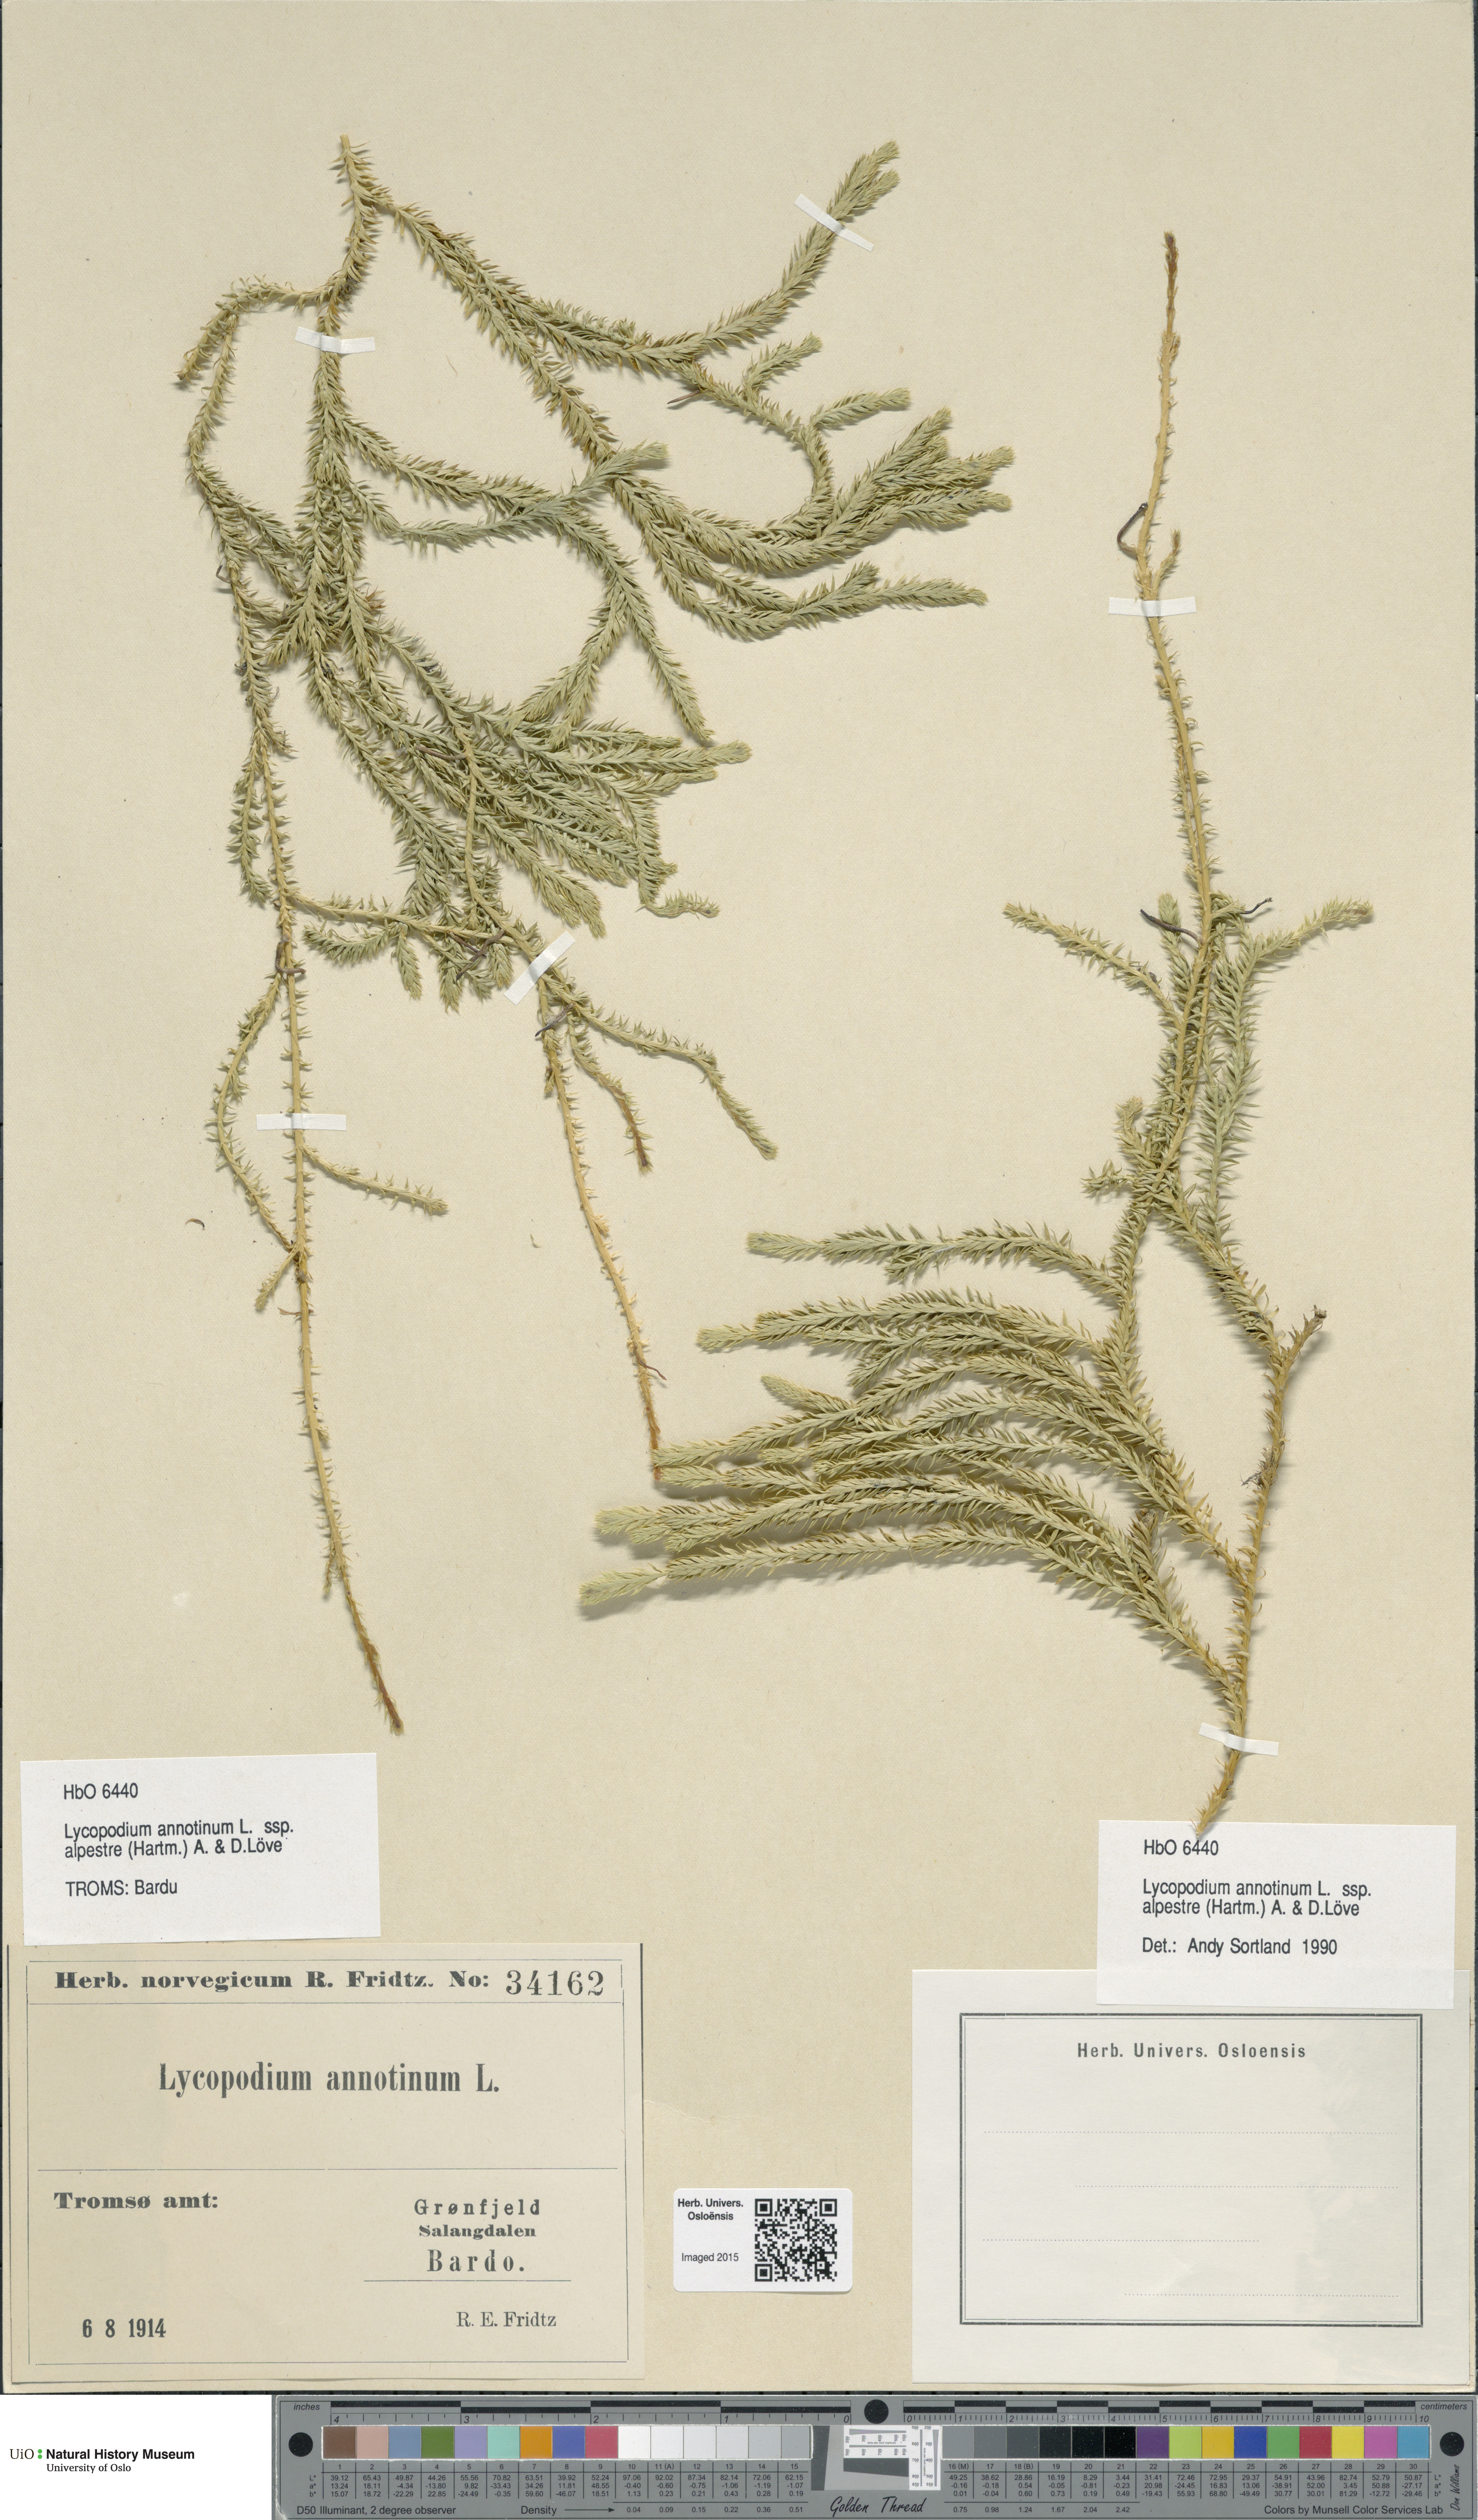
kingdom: Plantae
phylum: Tracheophyta
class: Lycopodiopsida
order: Lycopodiales
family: Lycopodiaceae
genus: Spinulum
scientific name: Spinulum annotinum
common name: Interrupted club-moss
